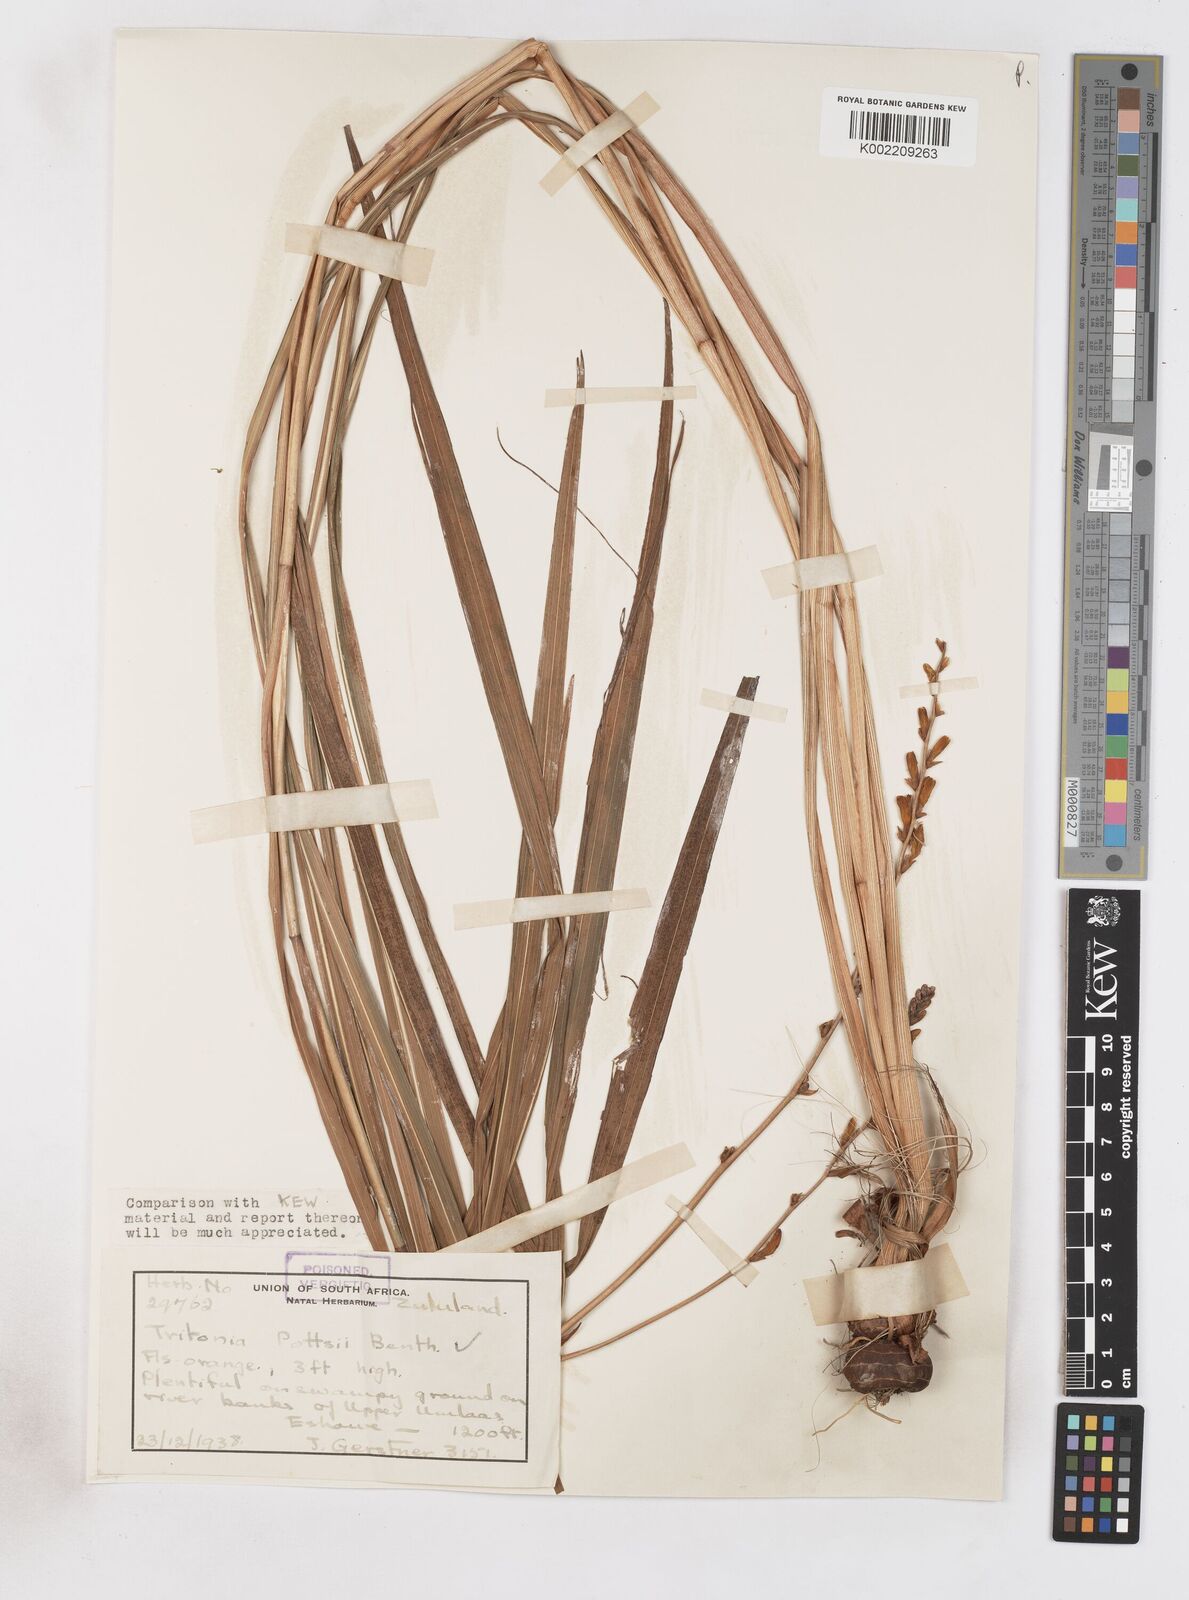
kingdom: Plantae
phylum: Tracheophyta
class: Liliopsida
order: Asparagales
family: Iridaceae
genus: Crocosmia
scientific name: Crocosmia pottsii
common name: Pott's montbretia
